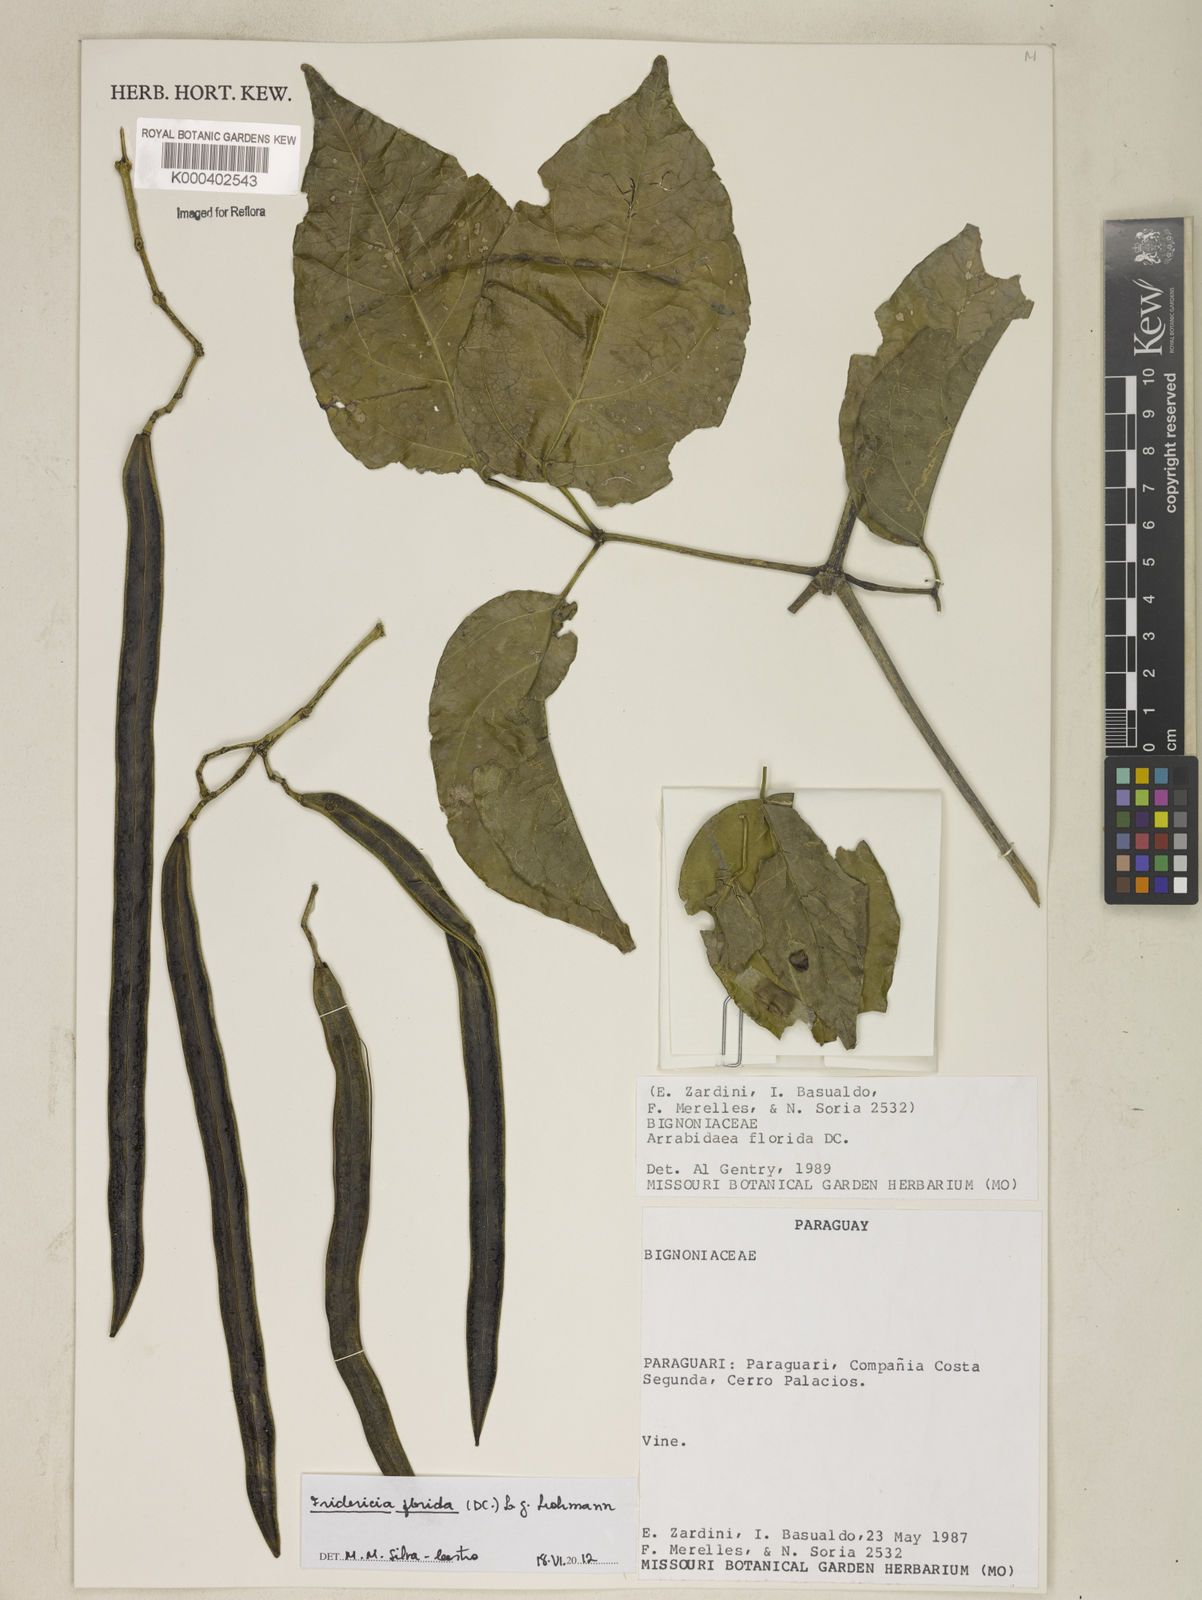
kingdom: Plantae
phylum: Tracheophyta
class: Magnoliopsida
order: Lamiales
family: Bignoniaceae
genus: Fridericia
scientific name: Fridericia florida
